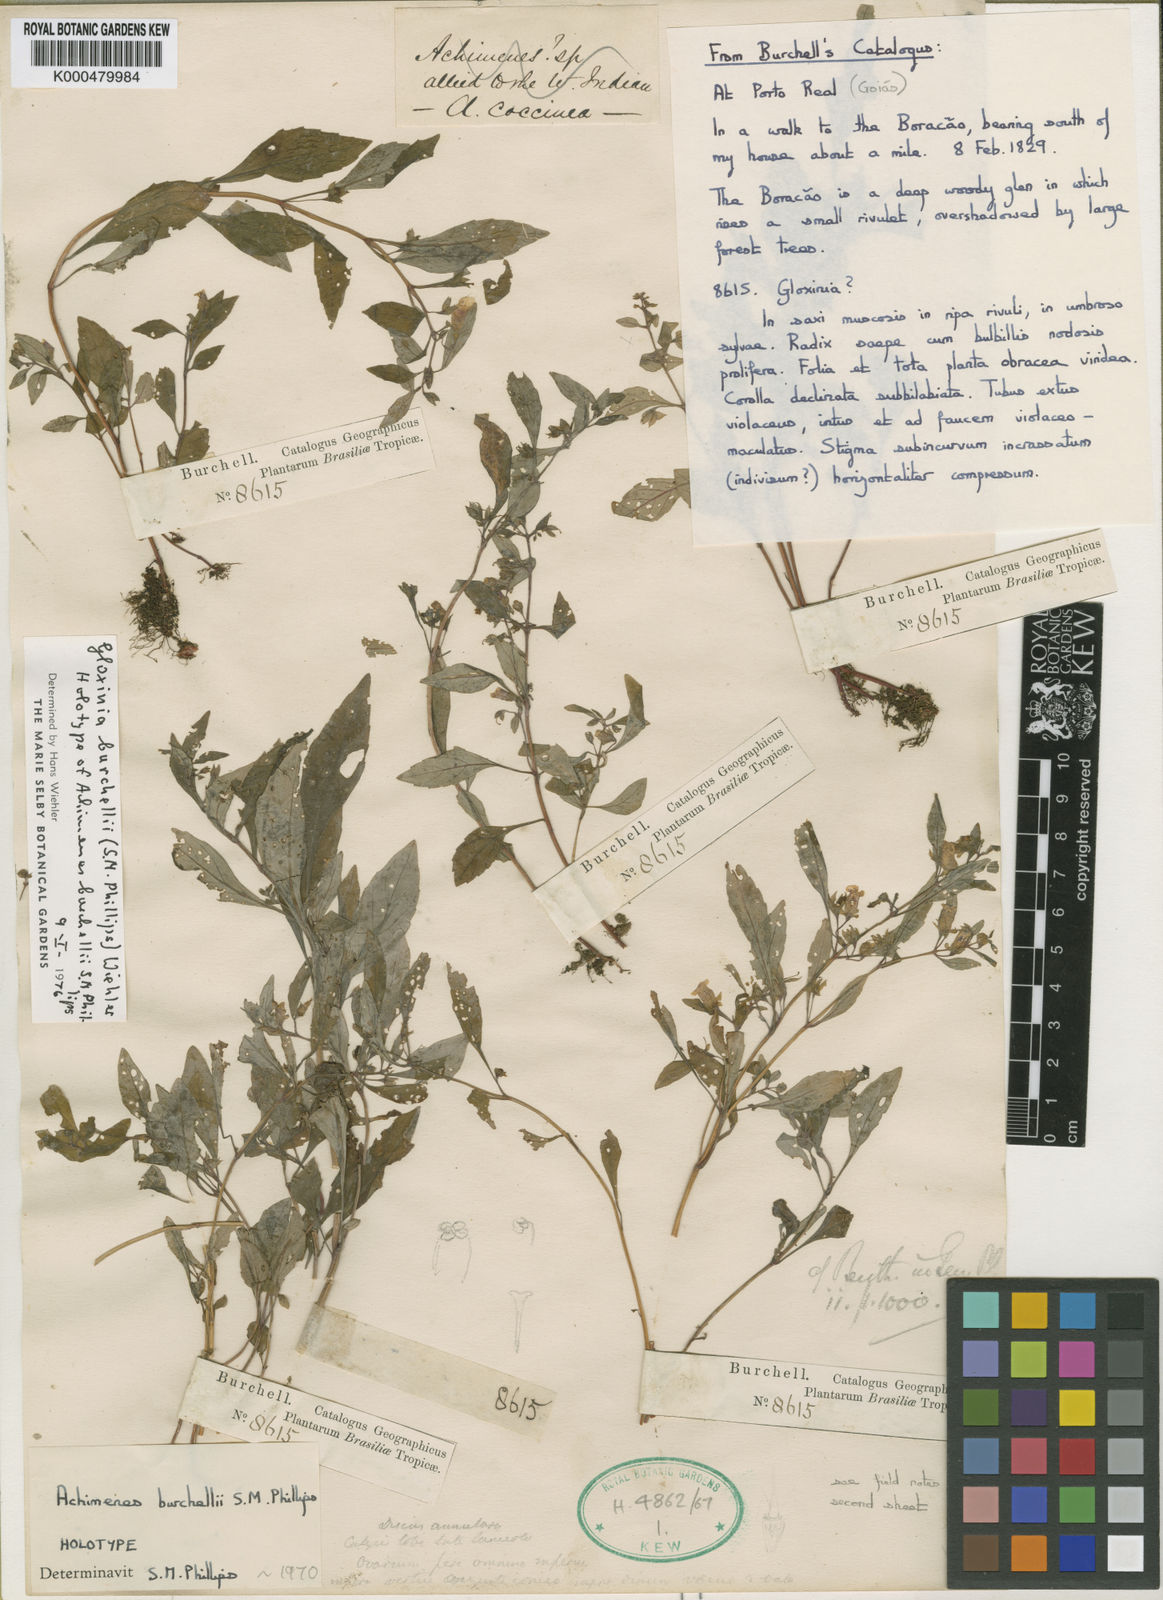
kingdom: Plantae
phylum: Tracheophyta
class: Magnoliopsida
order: Lamiales
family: Gesneriaceae
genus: Sphaerorrhiza
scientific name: Sphaerorrhiza burchellii
